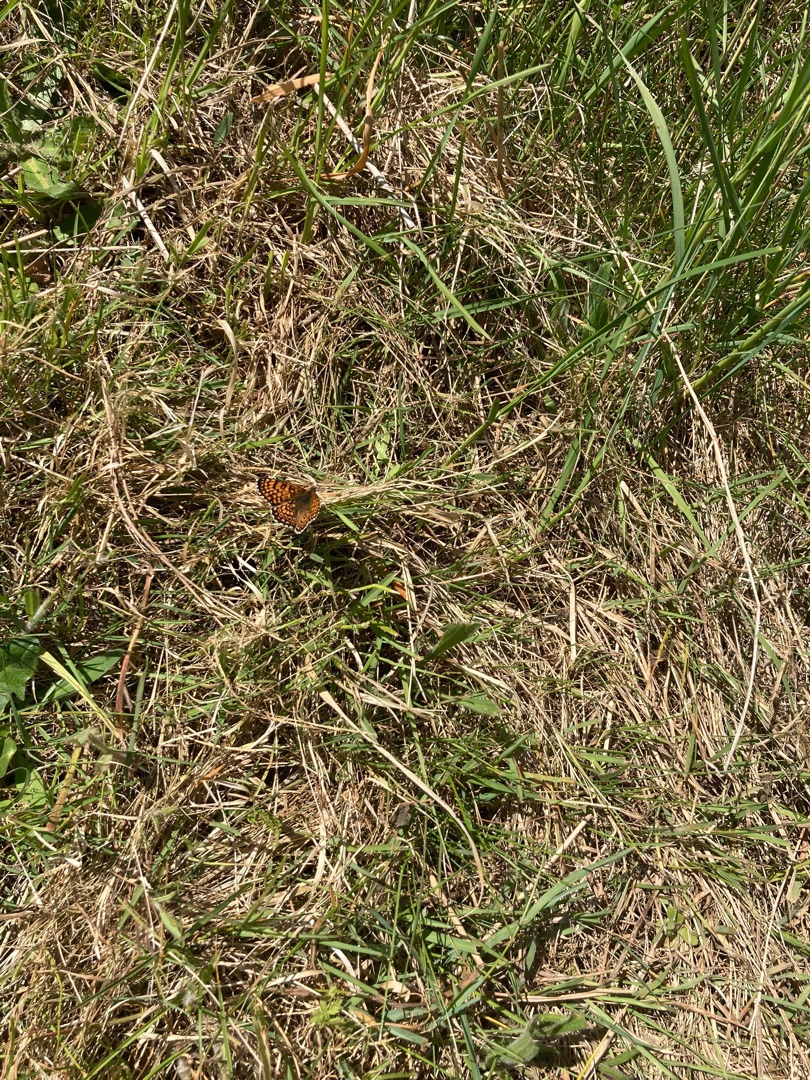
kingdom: Animalia
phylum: Arthropoda
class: Insecta
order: Lepidoptera
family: Nymphalidae
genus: Melitaea
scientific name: Melitaea cinxia
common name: Okkergul pletvinge
